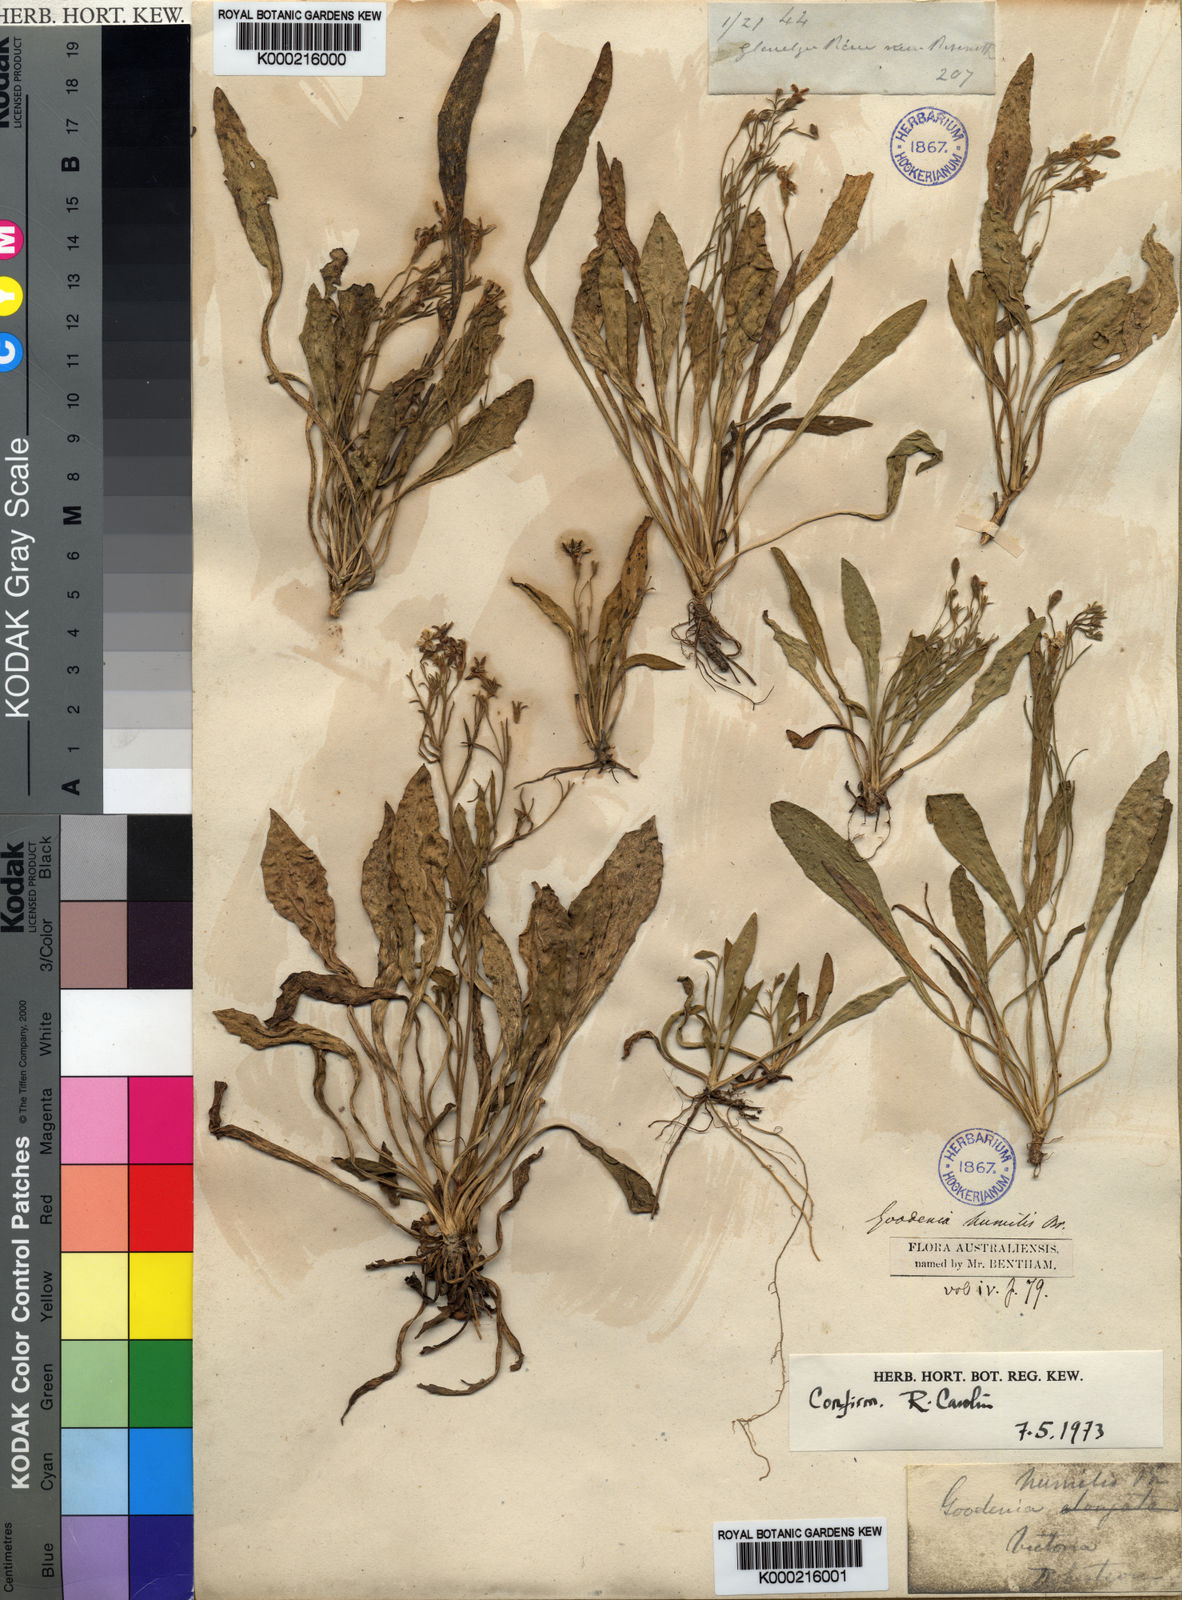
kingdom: Plantae
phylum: Tracheophyta
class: Magnoliopsida
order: Asterales
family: Goodeniaceae
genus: Goodenia
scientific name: Goodenia humilis
